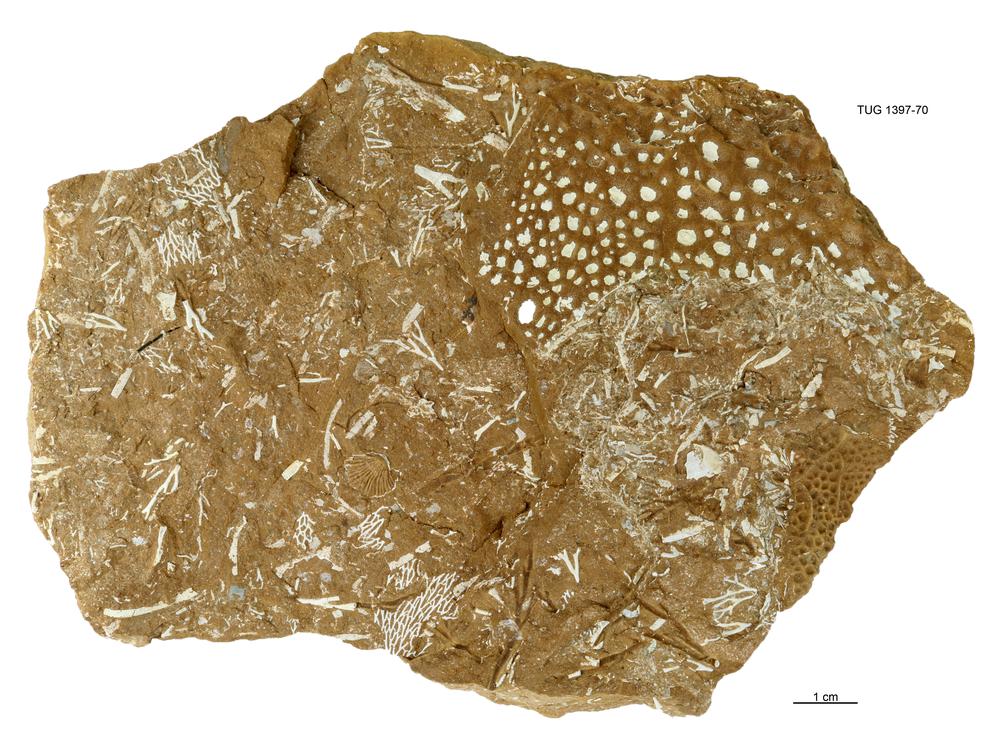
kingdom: Animalia
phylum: Arthropoda
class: Trilobita
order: Phacopida
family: Cheiruridae
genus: Nieszkowskia
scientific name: Nieszkowskia
